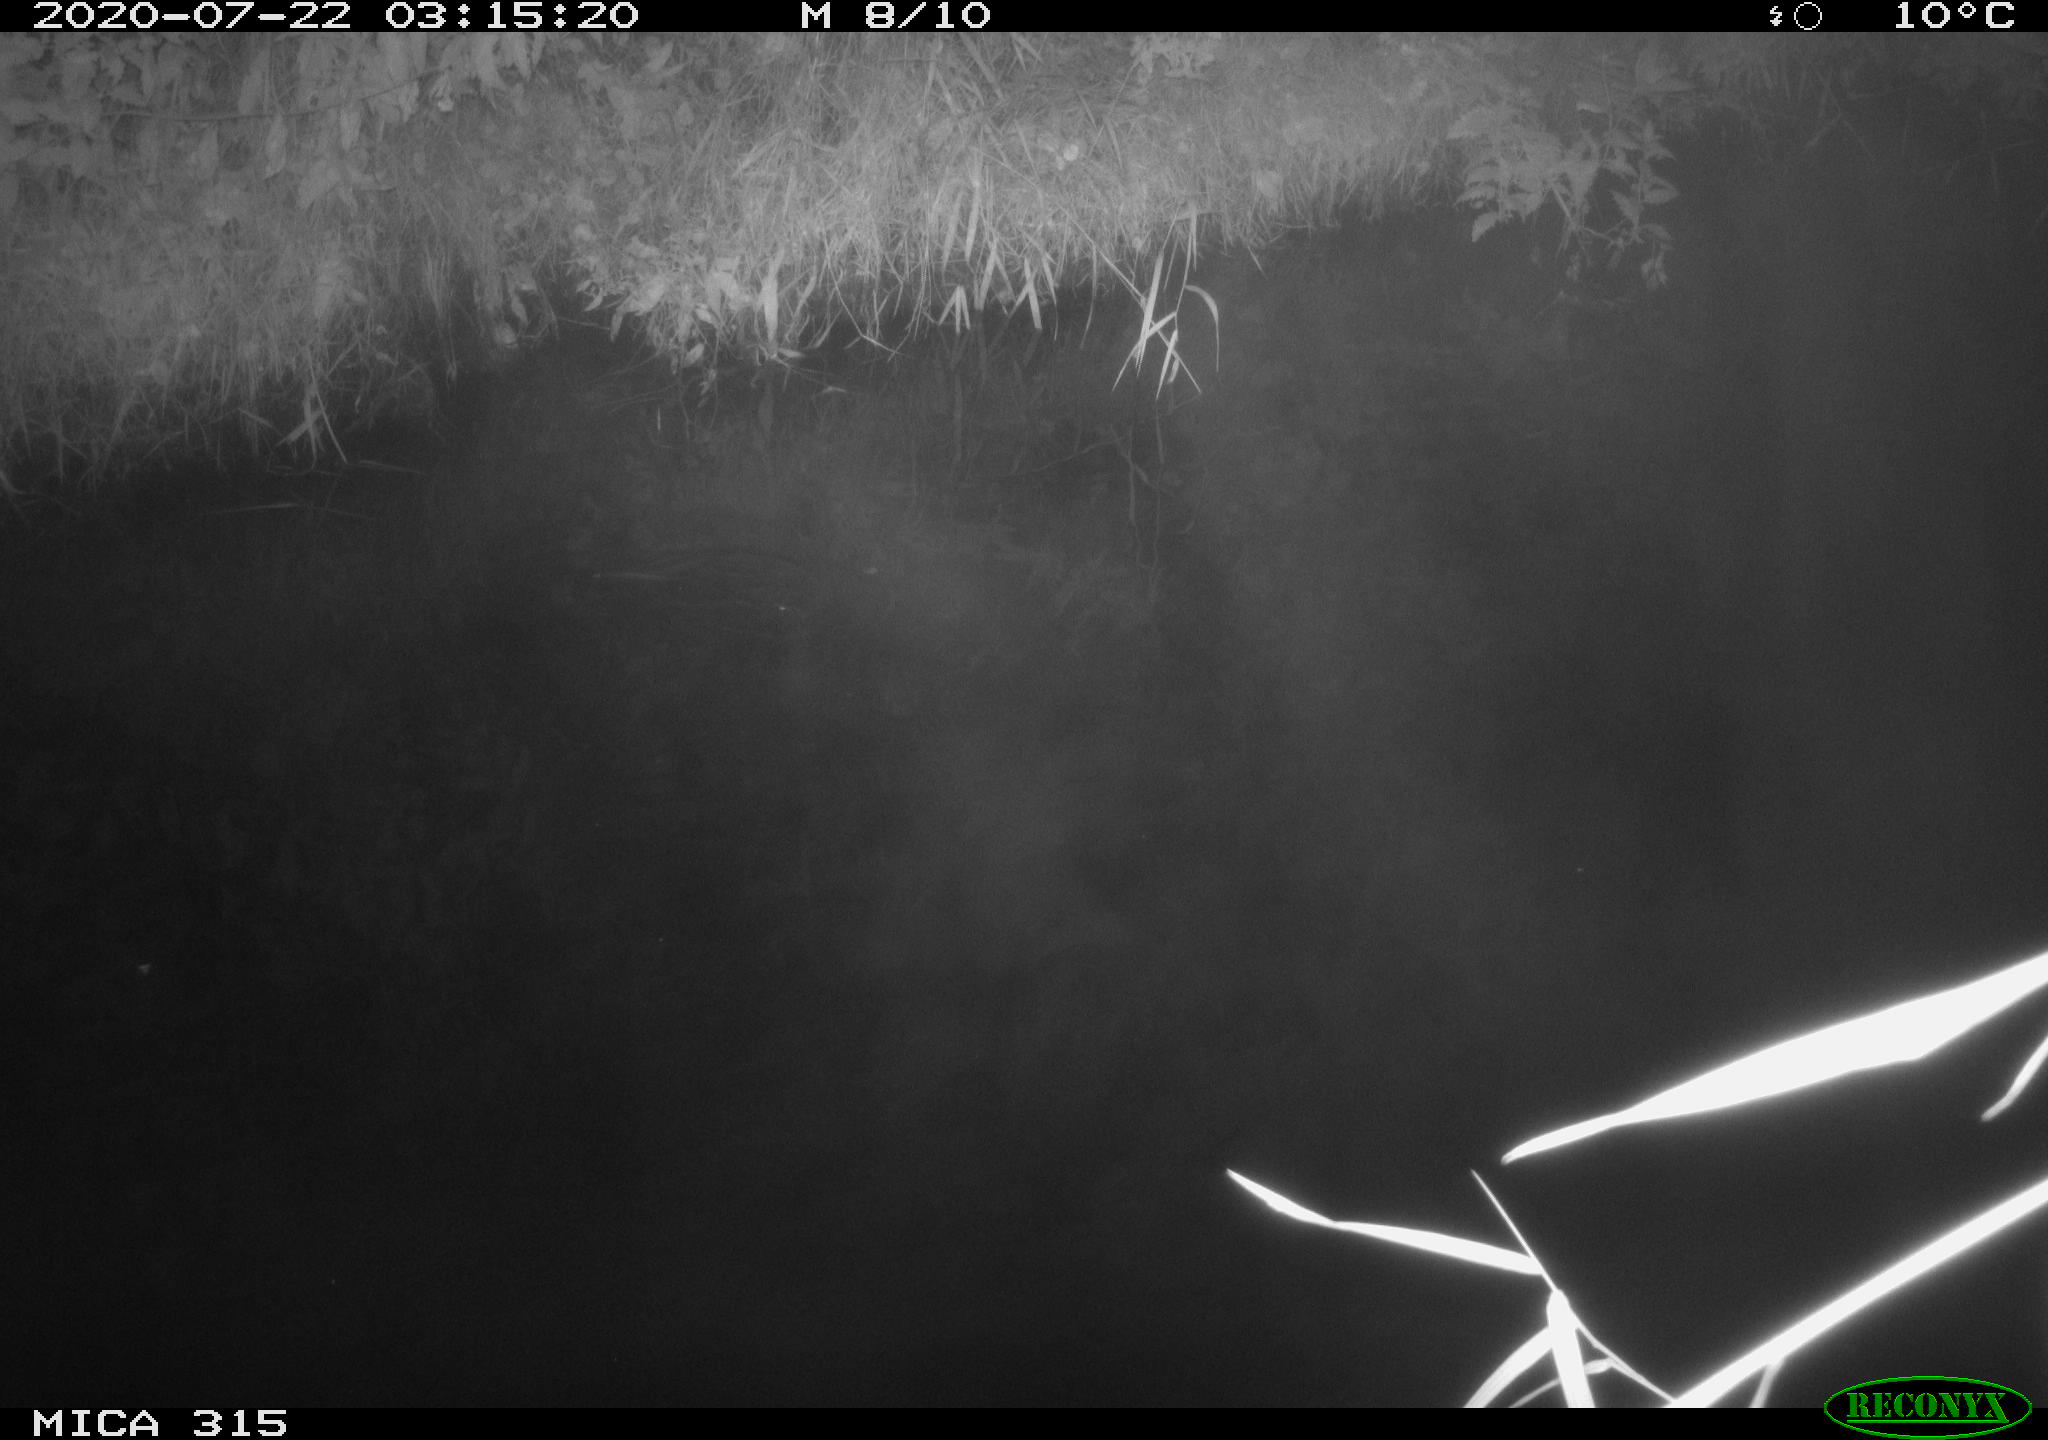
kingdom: Animalia
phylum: Chordata
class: Aves
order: Anseriformes
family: Anatidae
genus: Anas
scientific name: Anas platyrhynchos
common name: Mallard
